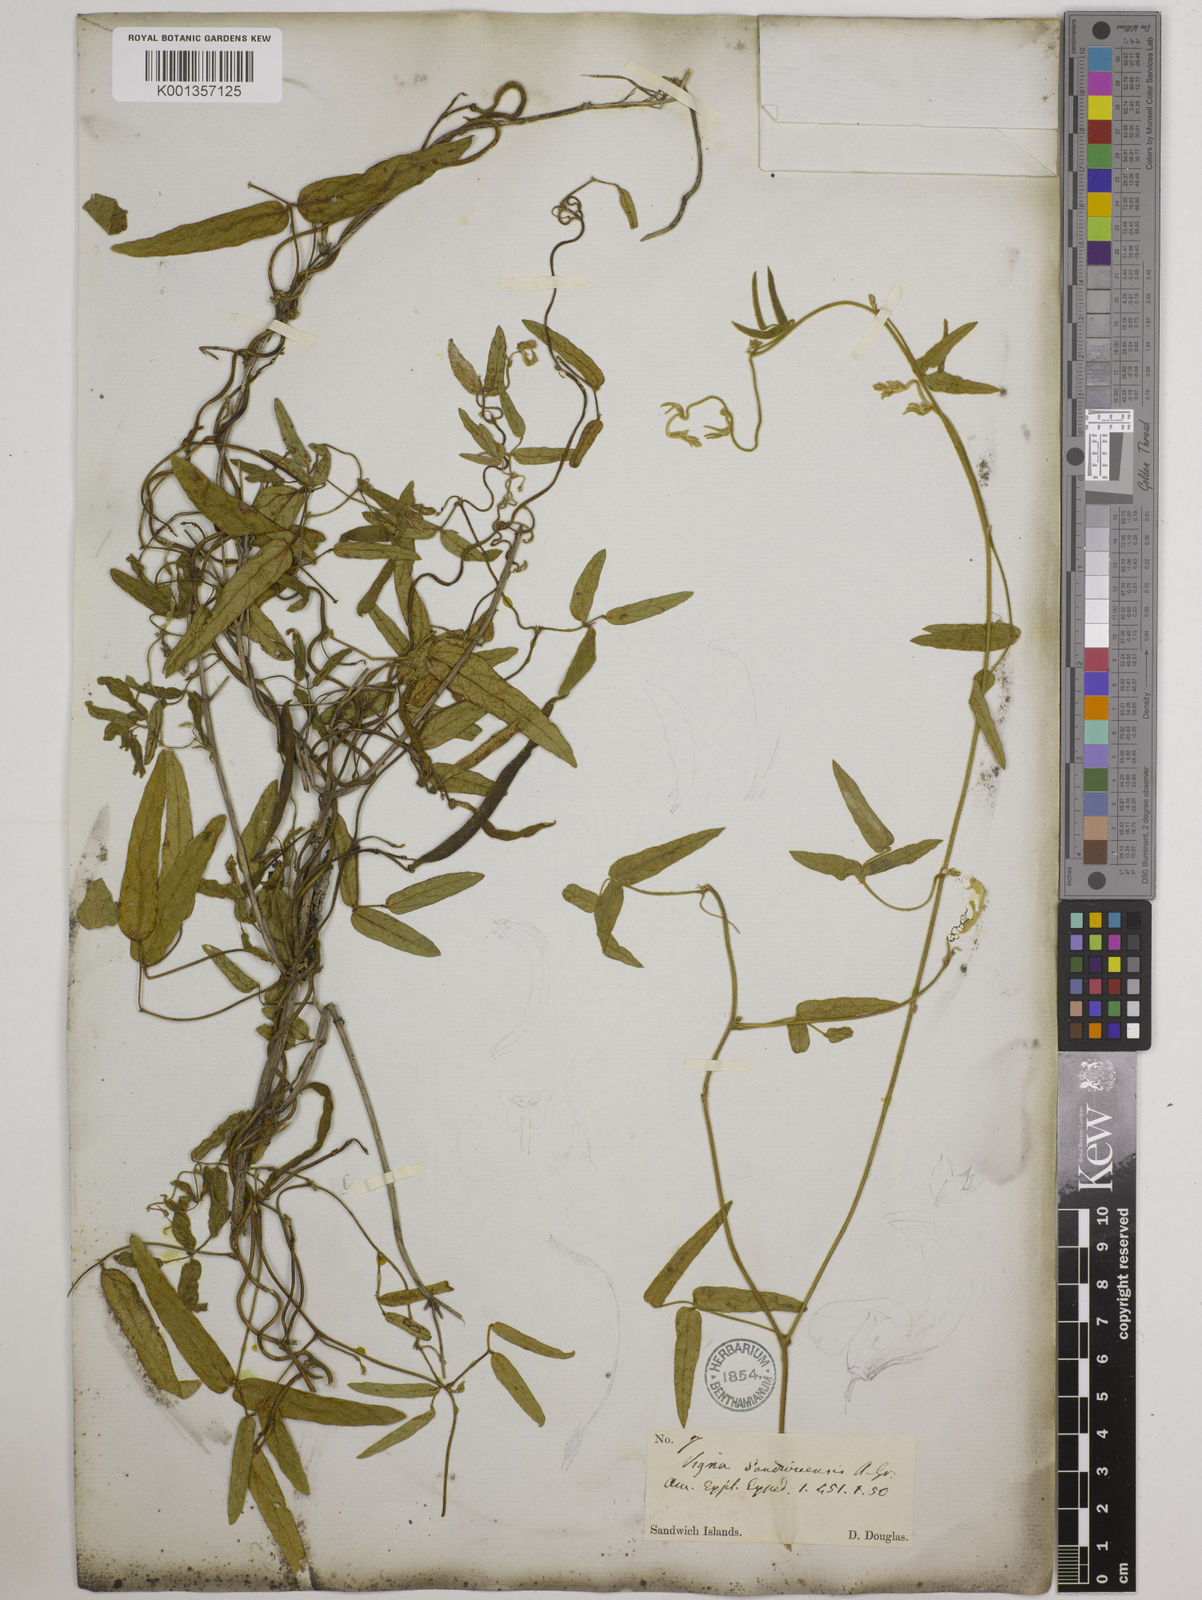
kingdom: Plantae
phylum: Tracheophyta
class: Magnoliopsida
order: Fabales
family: Fabaceae
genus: Vigna
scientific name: Vigna
